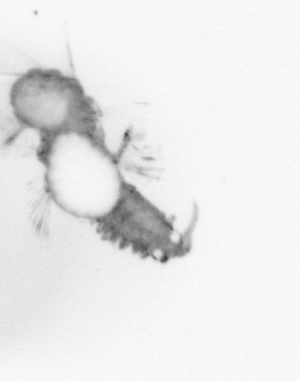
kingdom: Animalia
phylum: Annelida
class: Polychaeta
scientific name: Polychaeta
